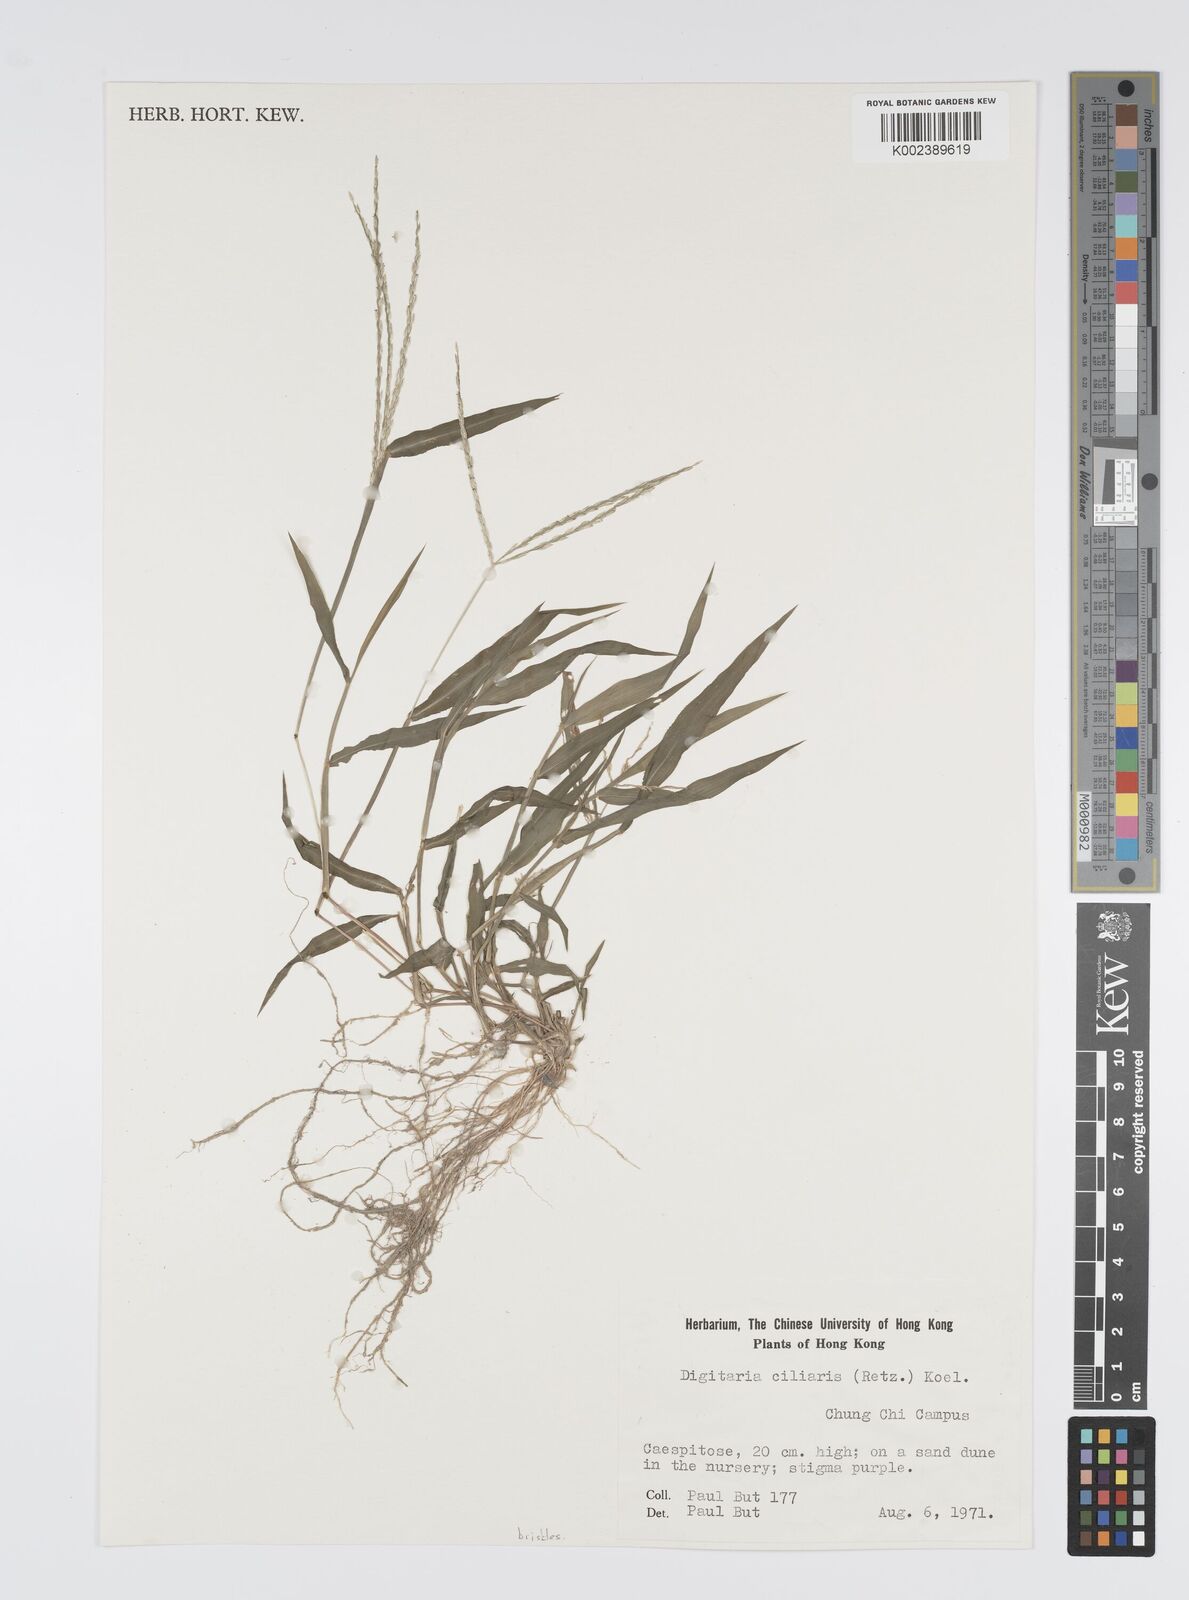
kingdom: Plantae
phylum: Tracheophyta
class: Liliopsida
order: Poales
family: Poaceae
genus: Digitaria
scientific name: Digitaria ciliaris
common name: Tropical finger-grass
